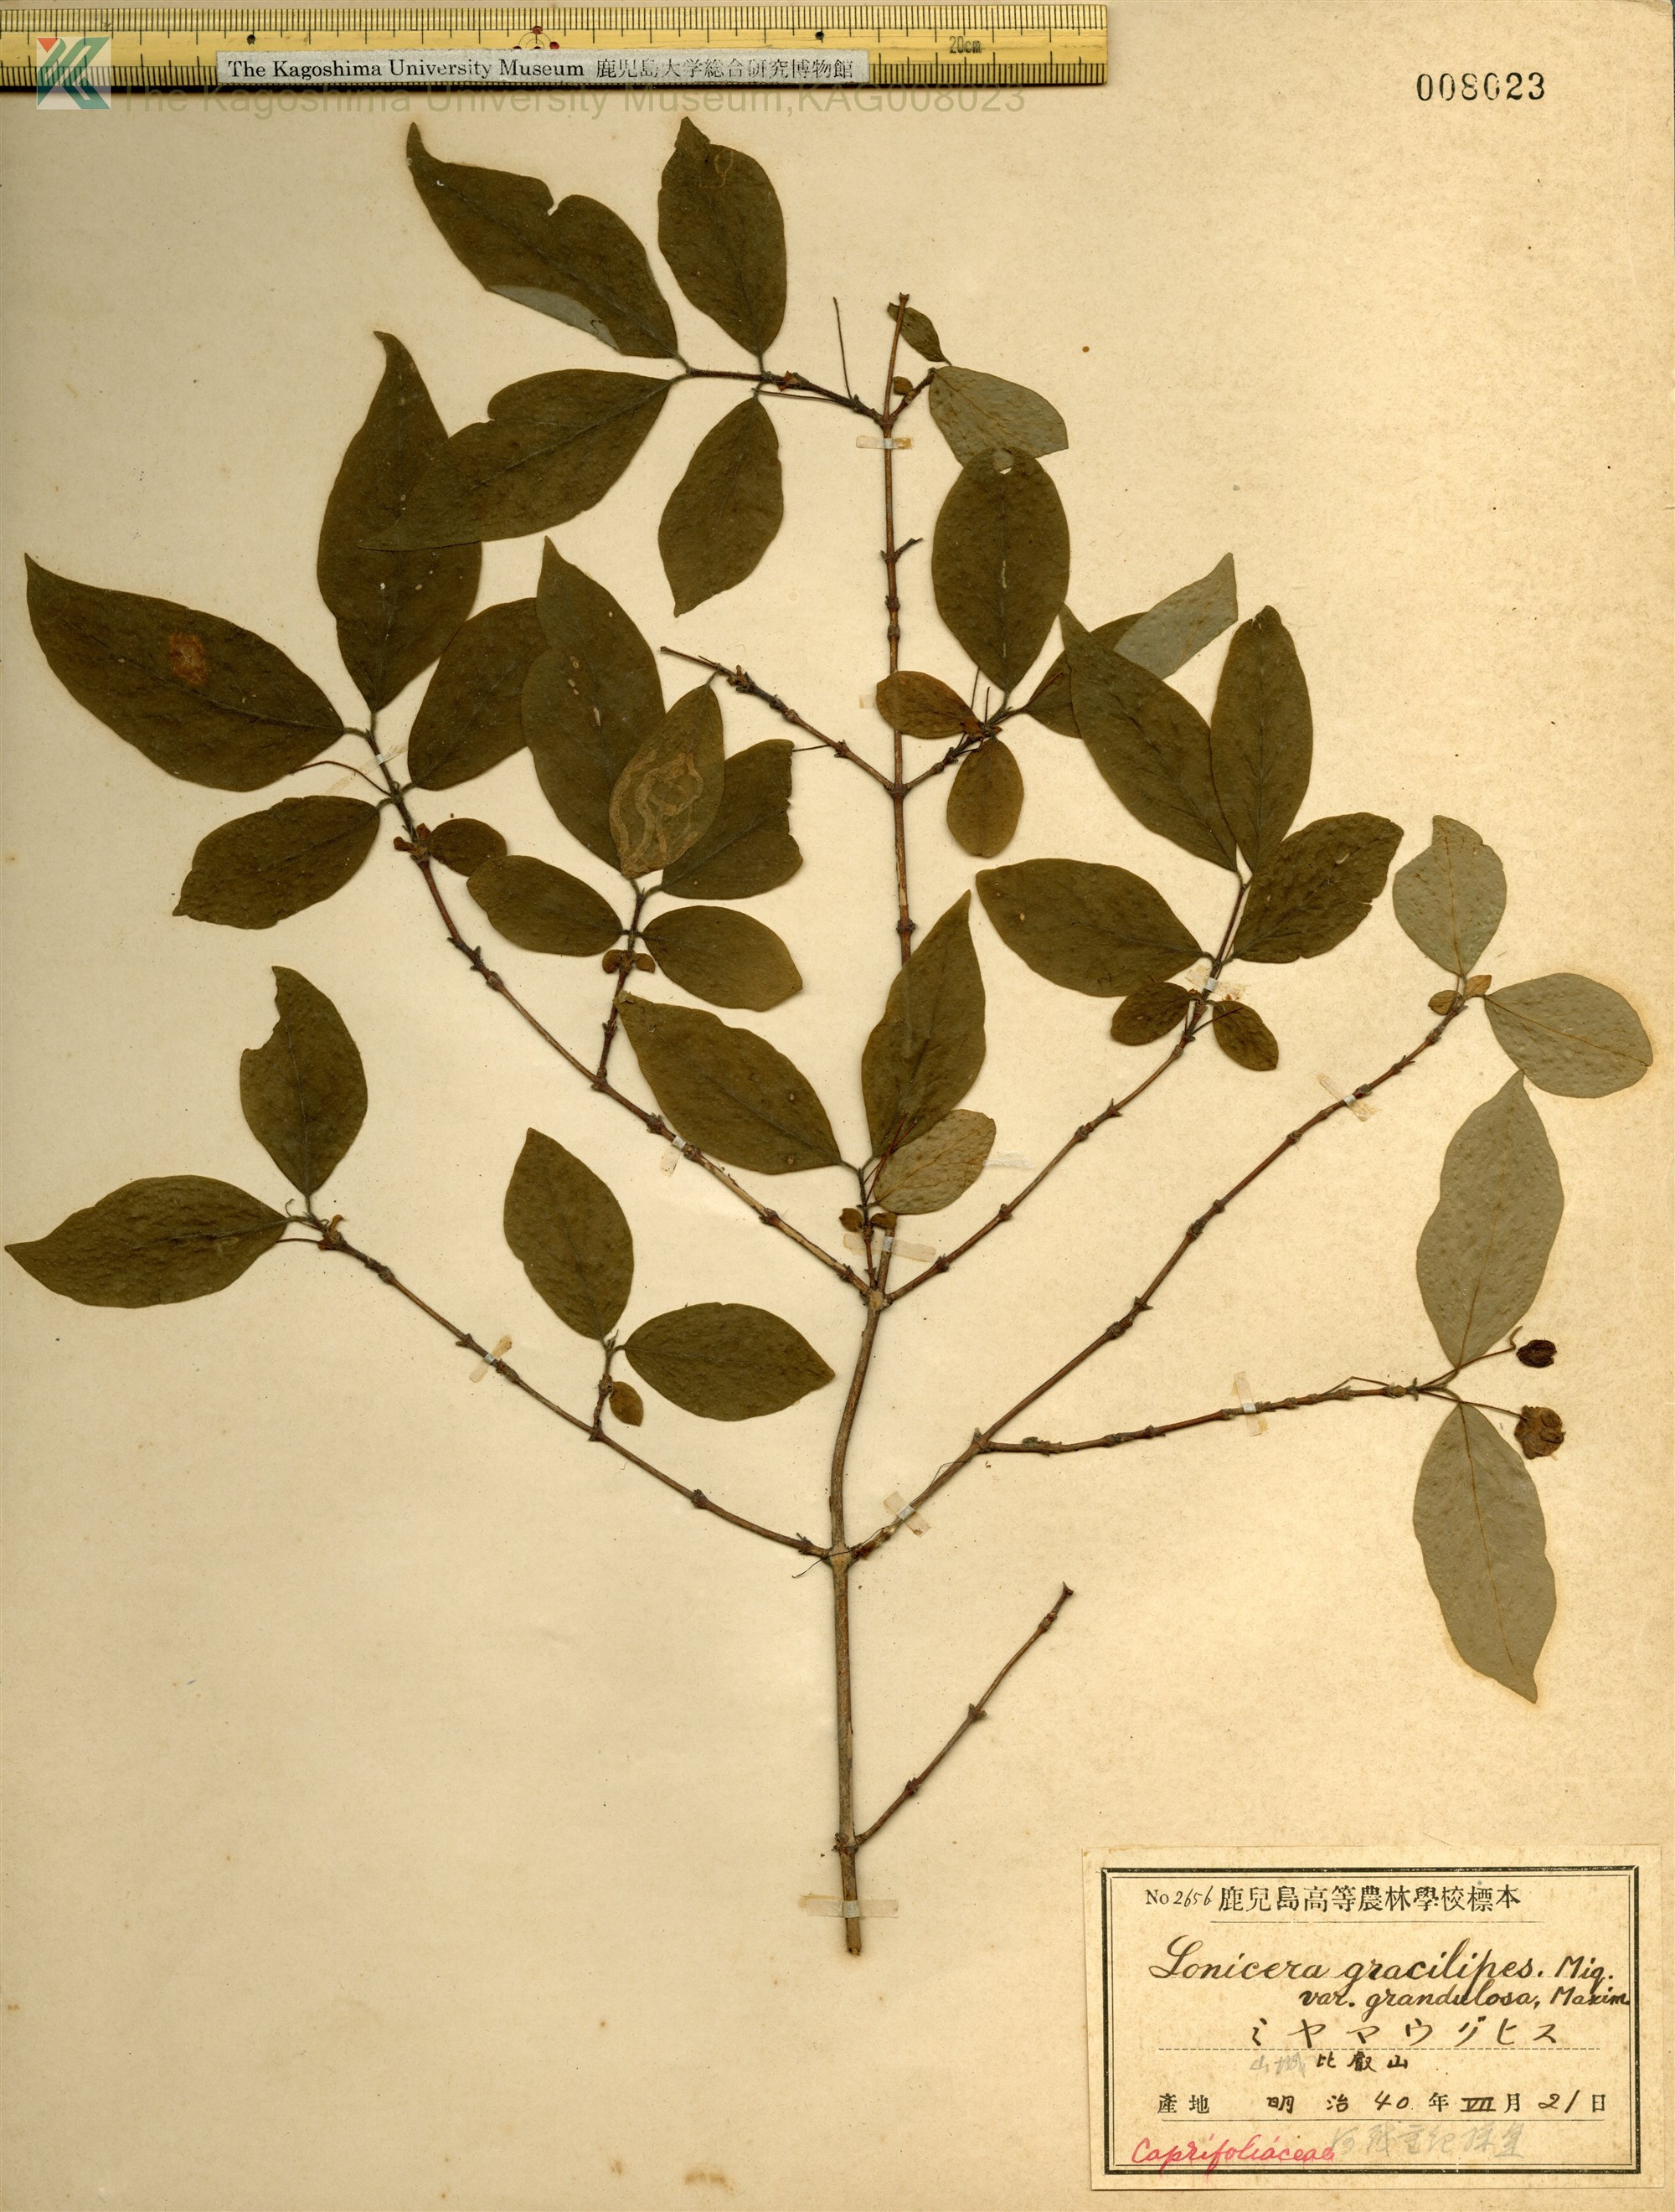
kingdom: Plantae
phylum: Tracheophyta
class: Magnoliopsida
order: Dipsacales
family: Caprifoliaceae
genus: Lonicera
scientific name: Lonicera gracilipes
